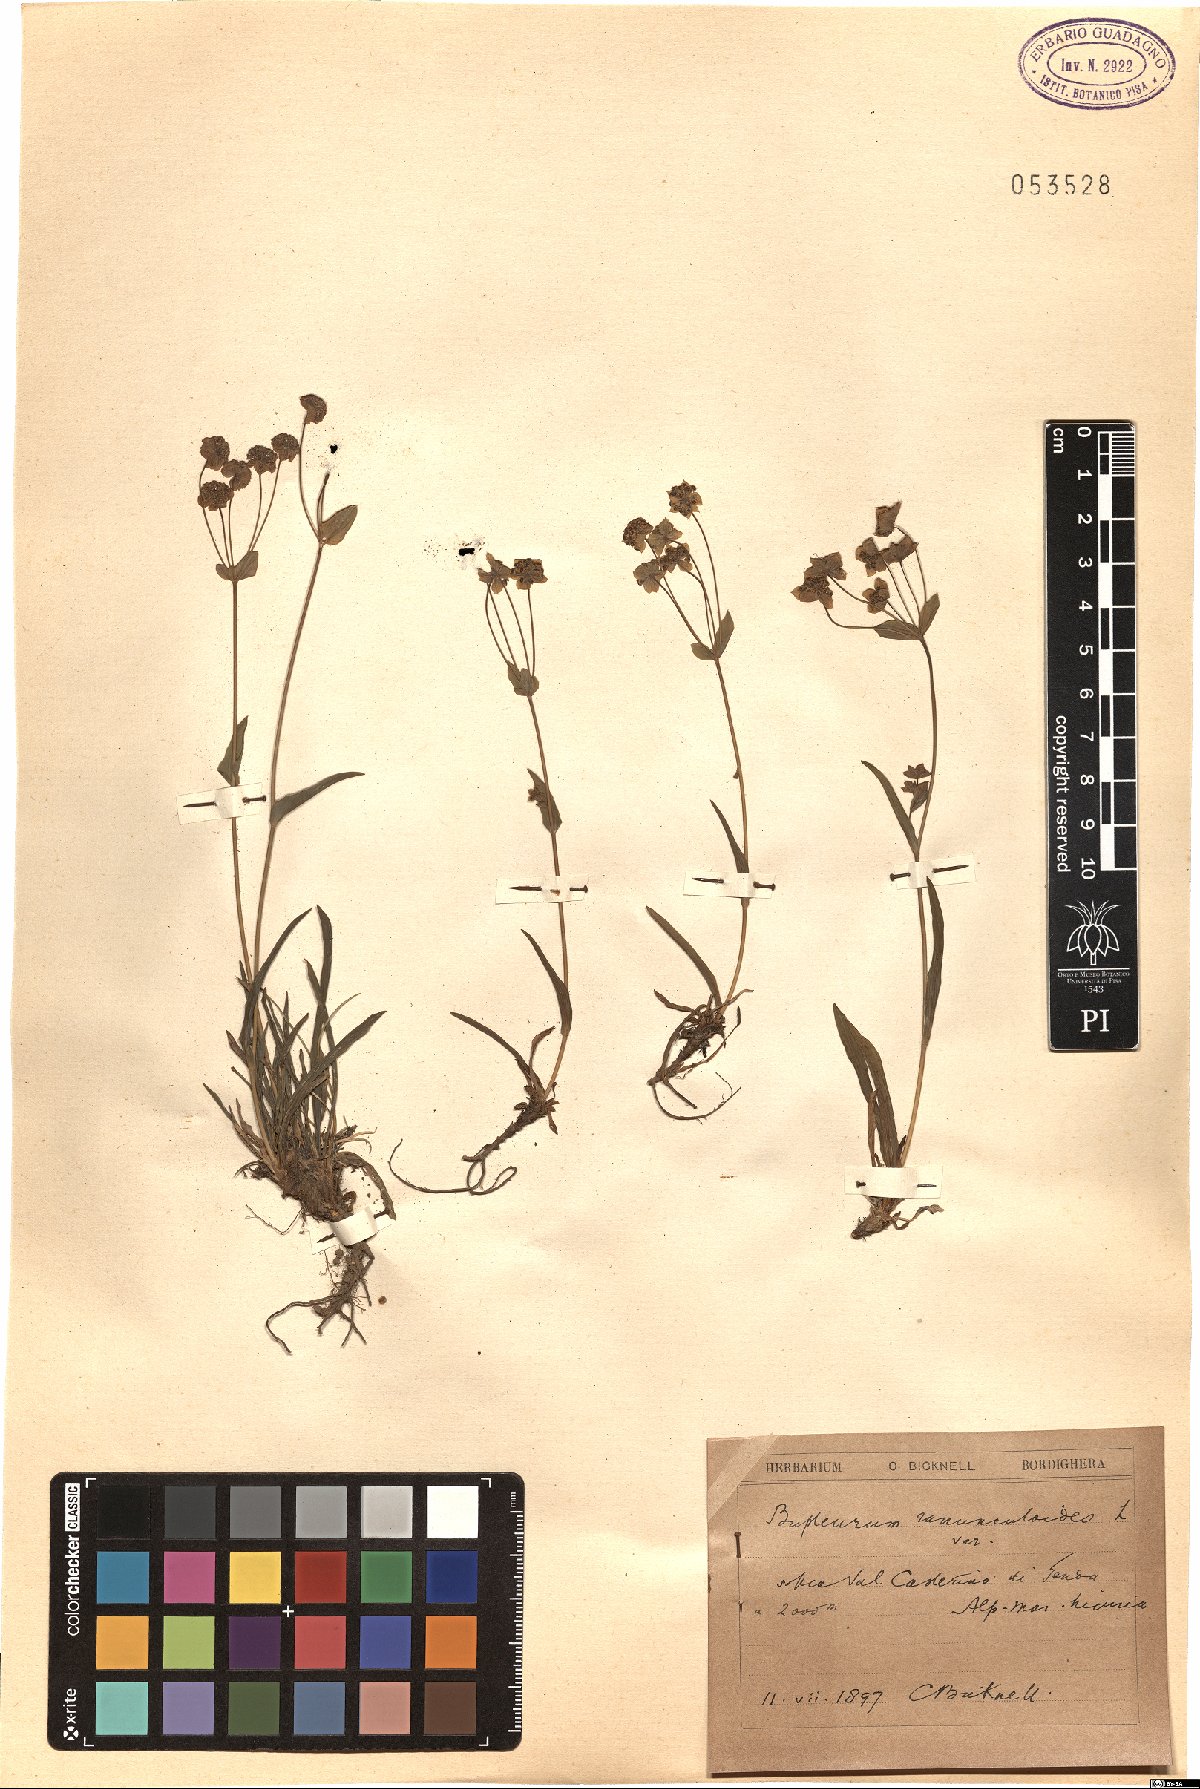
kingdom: Plantae
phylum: Tracheophyta
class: Magnoliopsida
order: Apiales
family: Apiaceae
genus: Bupleurum
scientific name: Bupleurum ranunculoides
